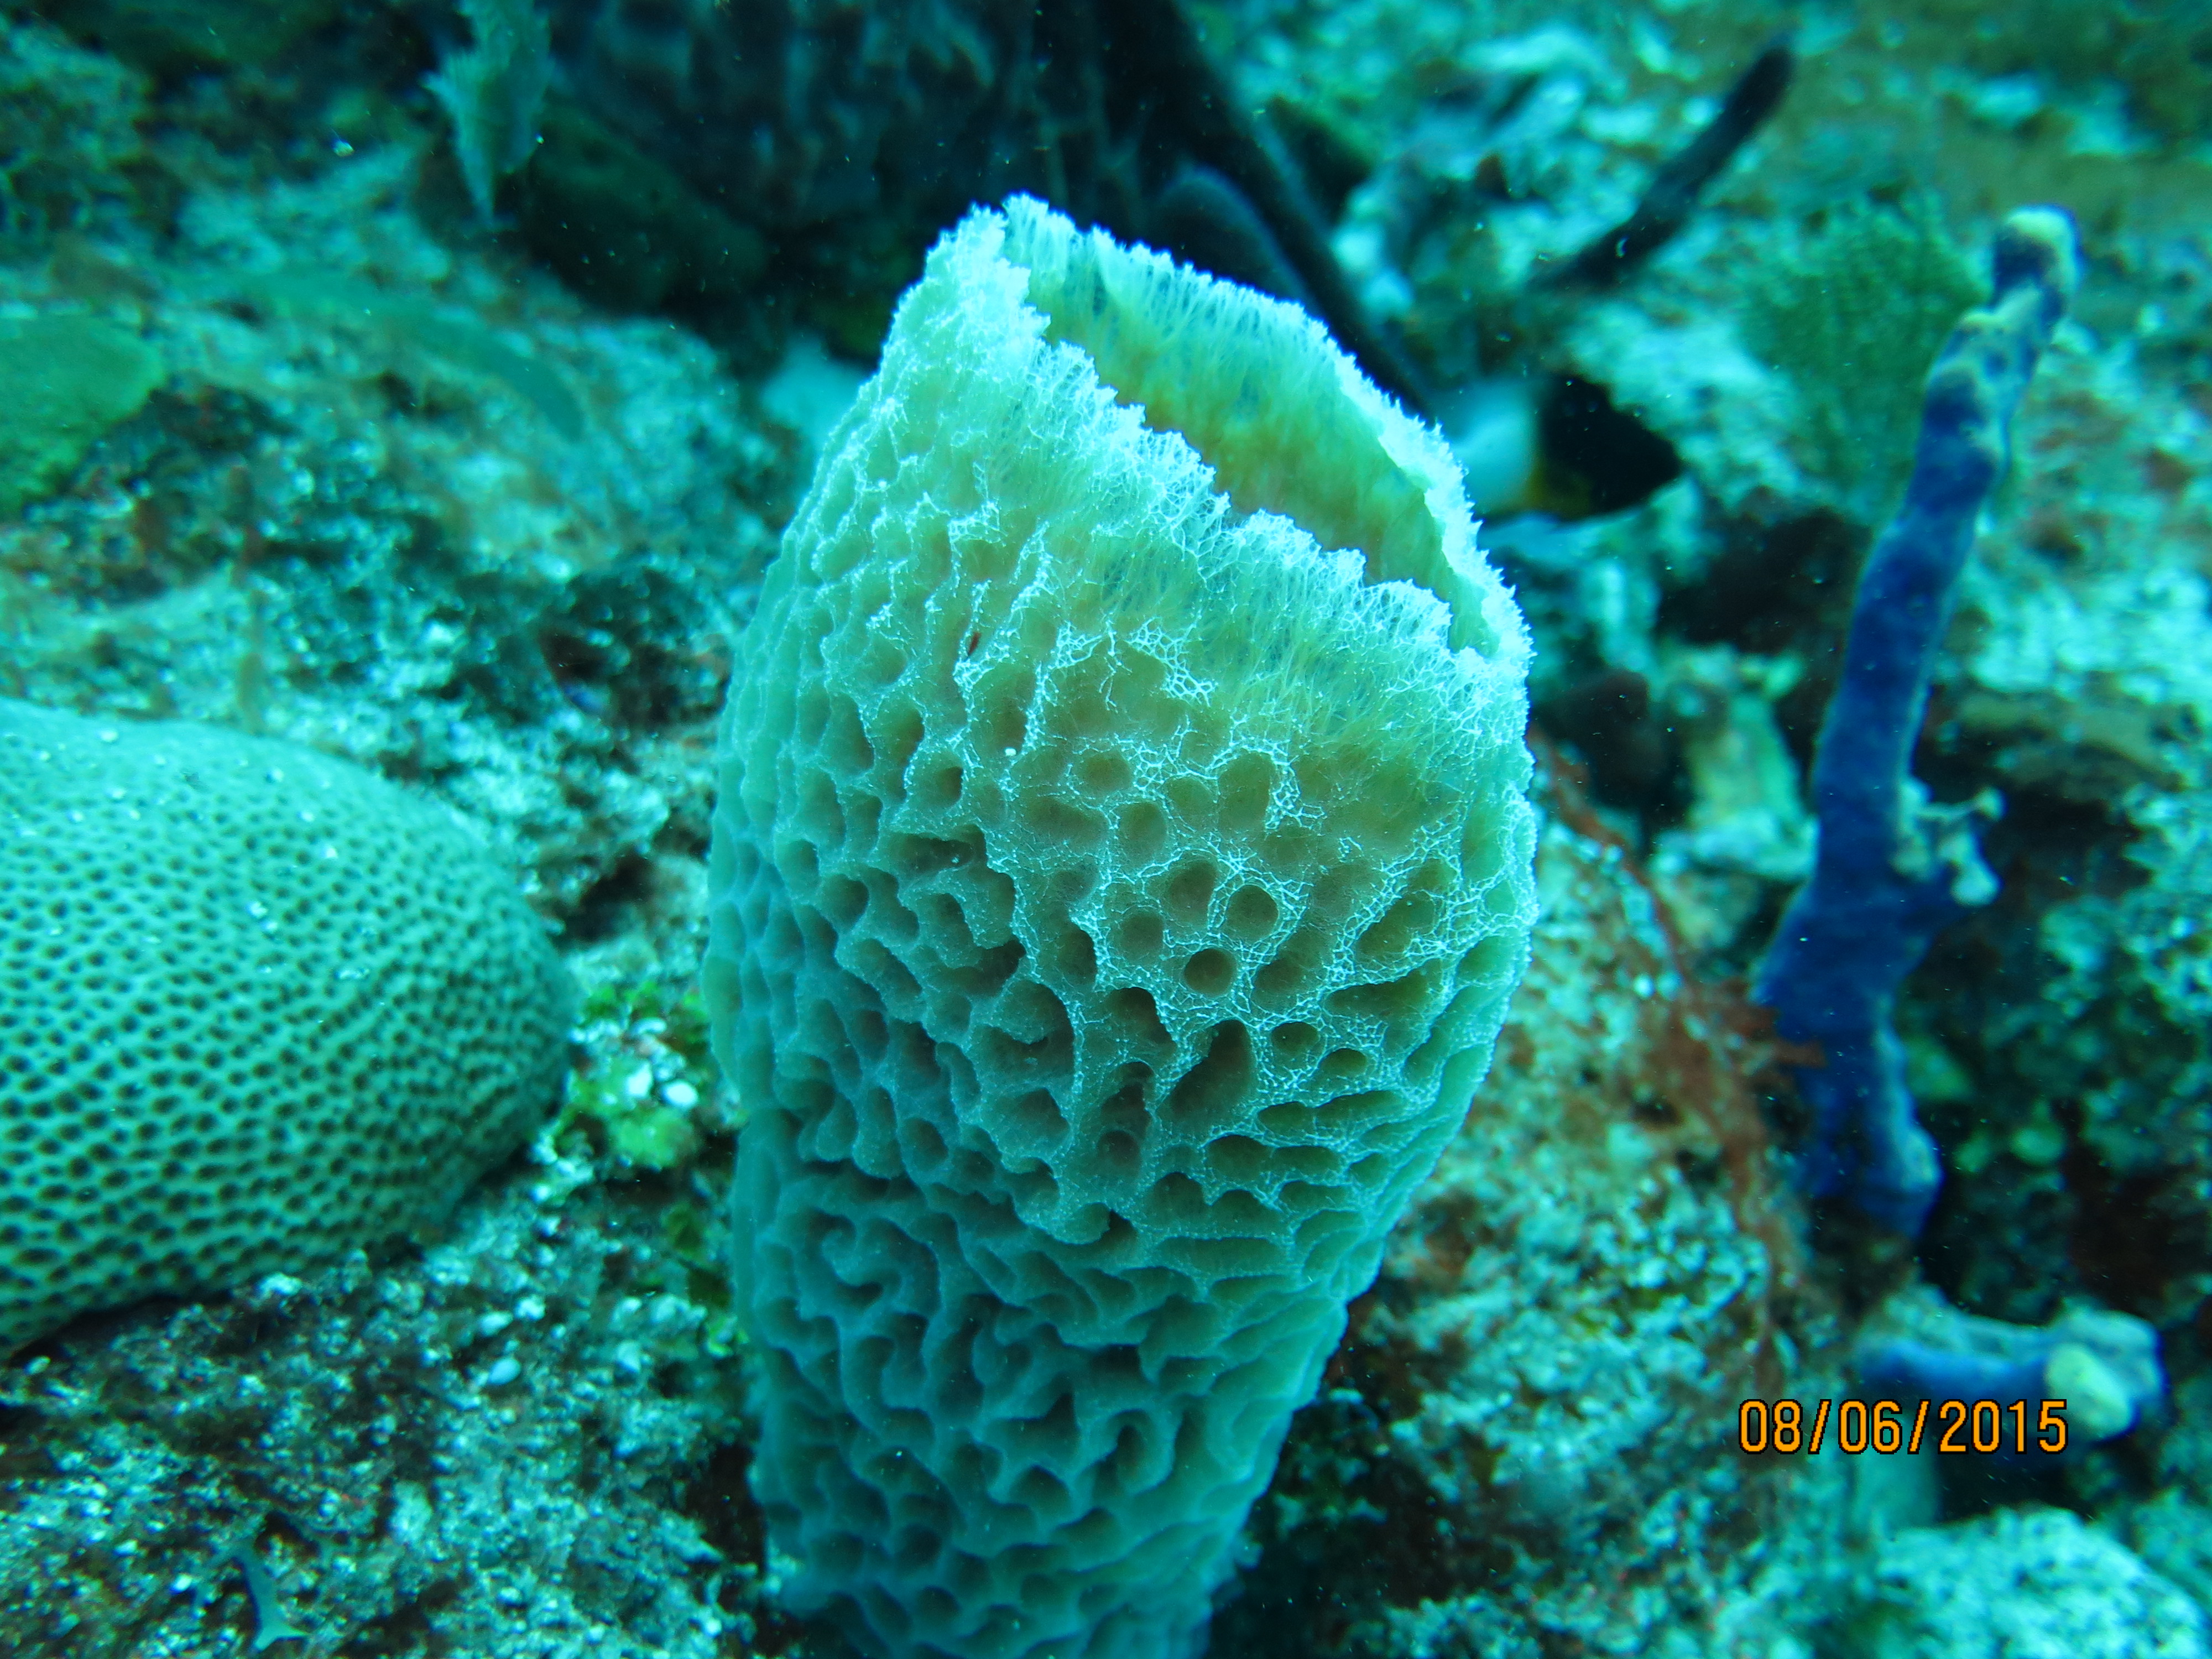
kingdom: Animalia
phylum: Porifera
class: Demospongiae
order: Haplosclerida
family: Callyspongiidae
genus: Callyspongia
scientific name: Callyspongia plicifera
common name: Azure vase sponge
